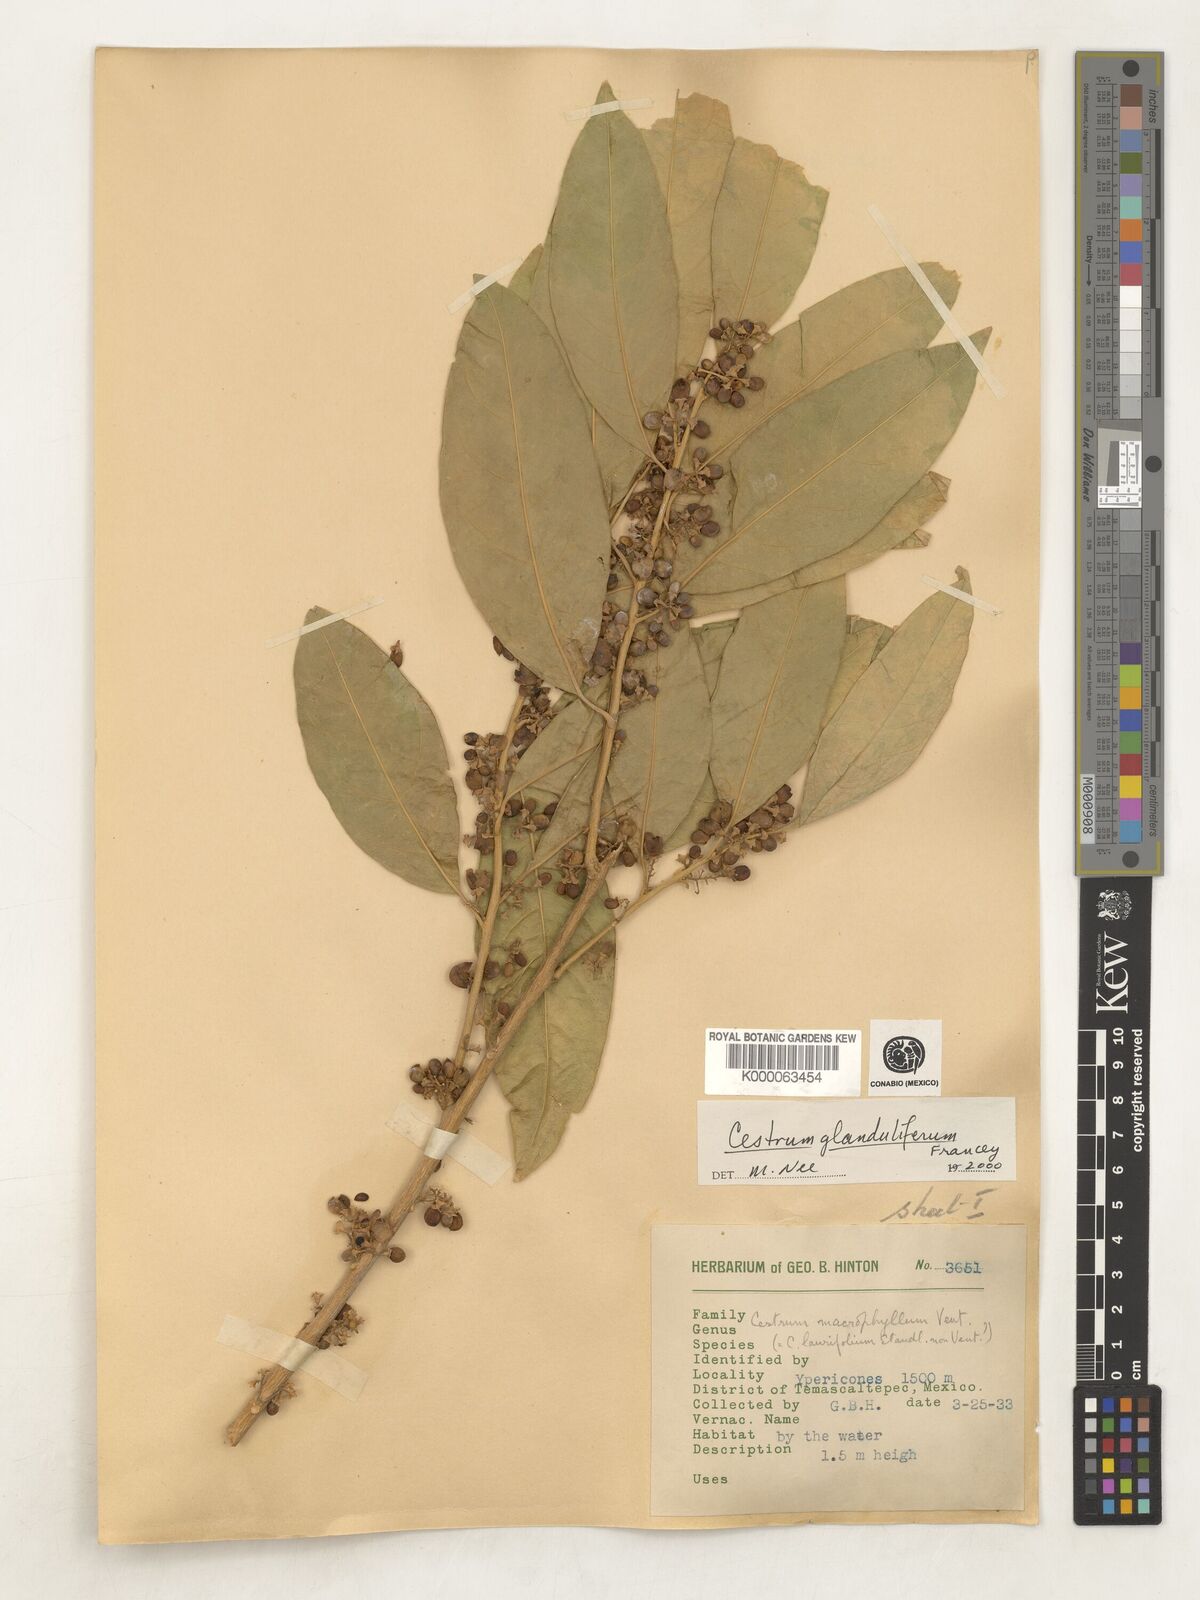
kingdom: Plantae
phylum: Tracheophyta
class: Magnoliopsida
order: Solanales
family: Solanaceae
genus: Cestrum
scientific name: Cestrum glanduliferum
